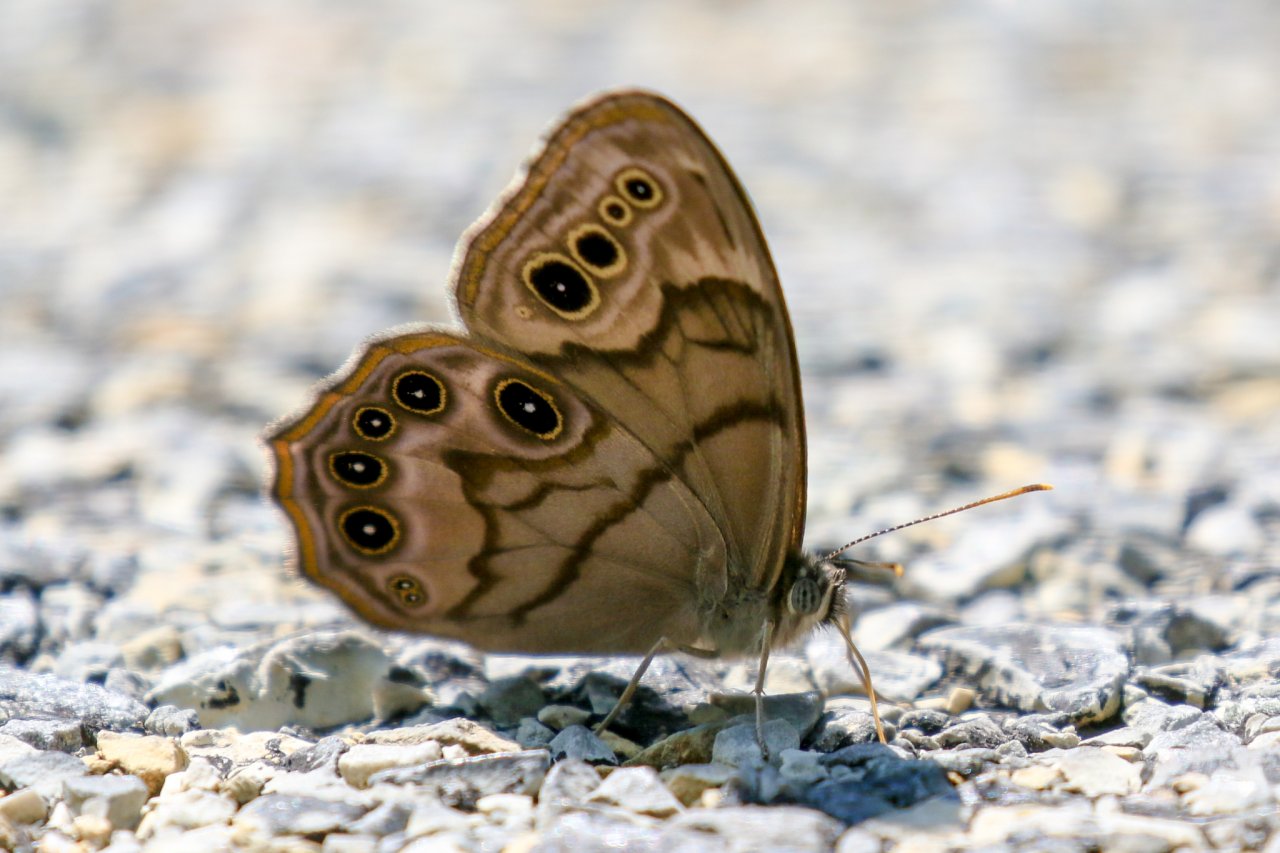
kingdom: Animalia
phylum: Arthropoda
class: Insecta
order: Lepidoptera
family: Nymphalidae
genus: Lethe
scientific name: Lethe anthedon
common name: Northern Pearly-Eye
